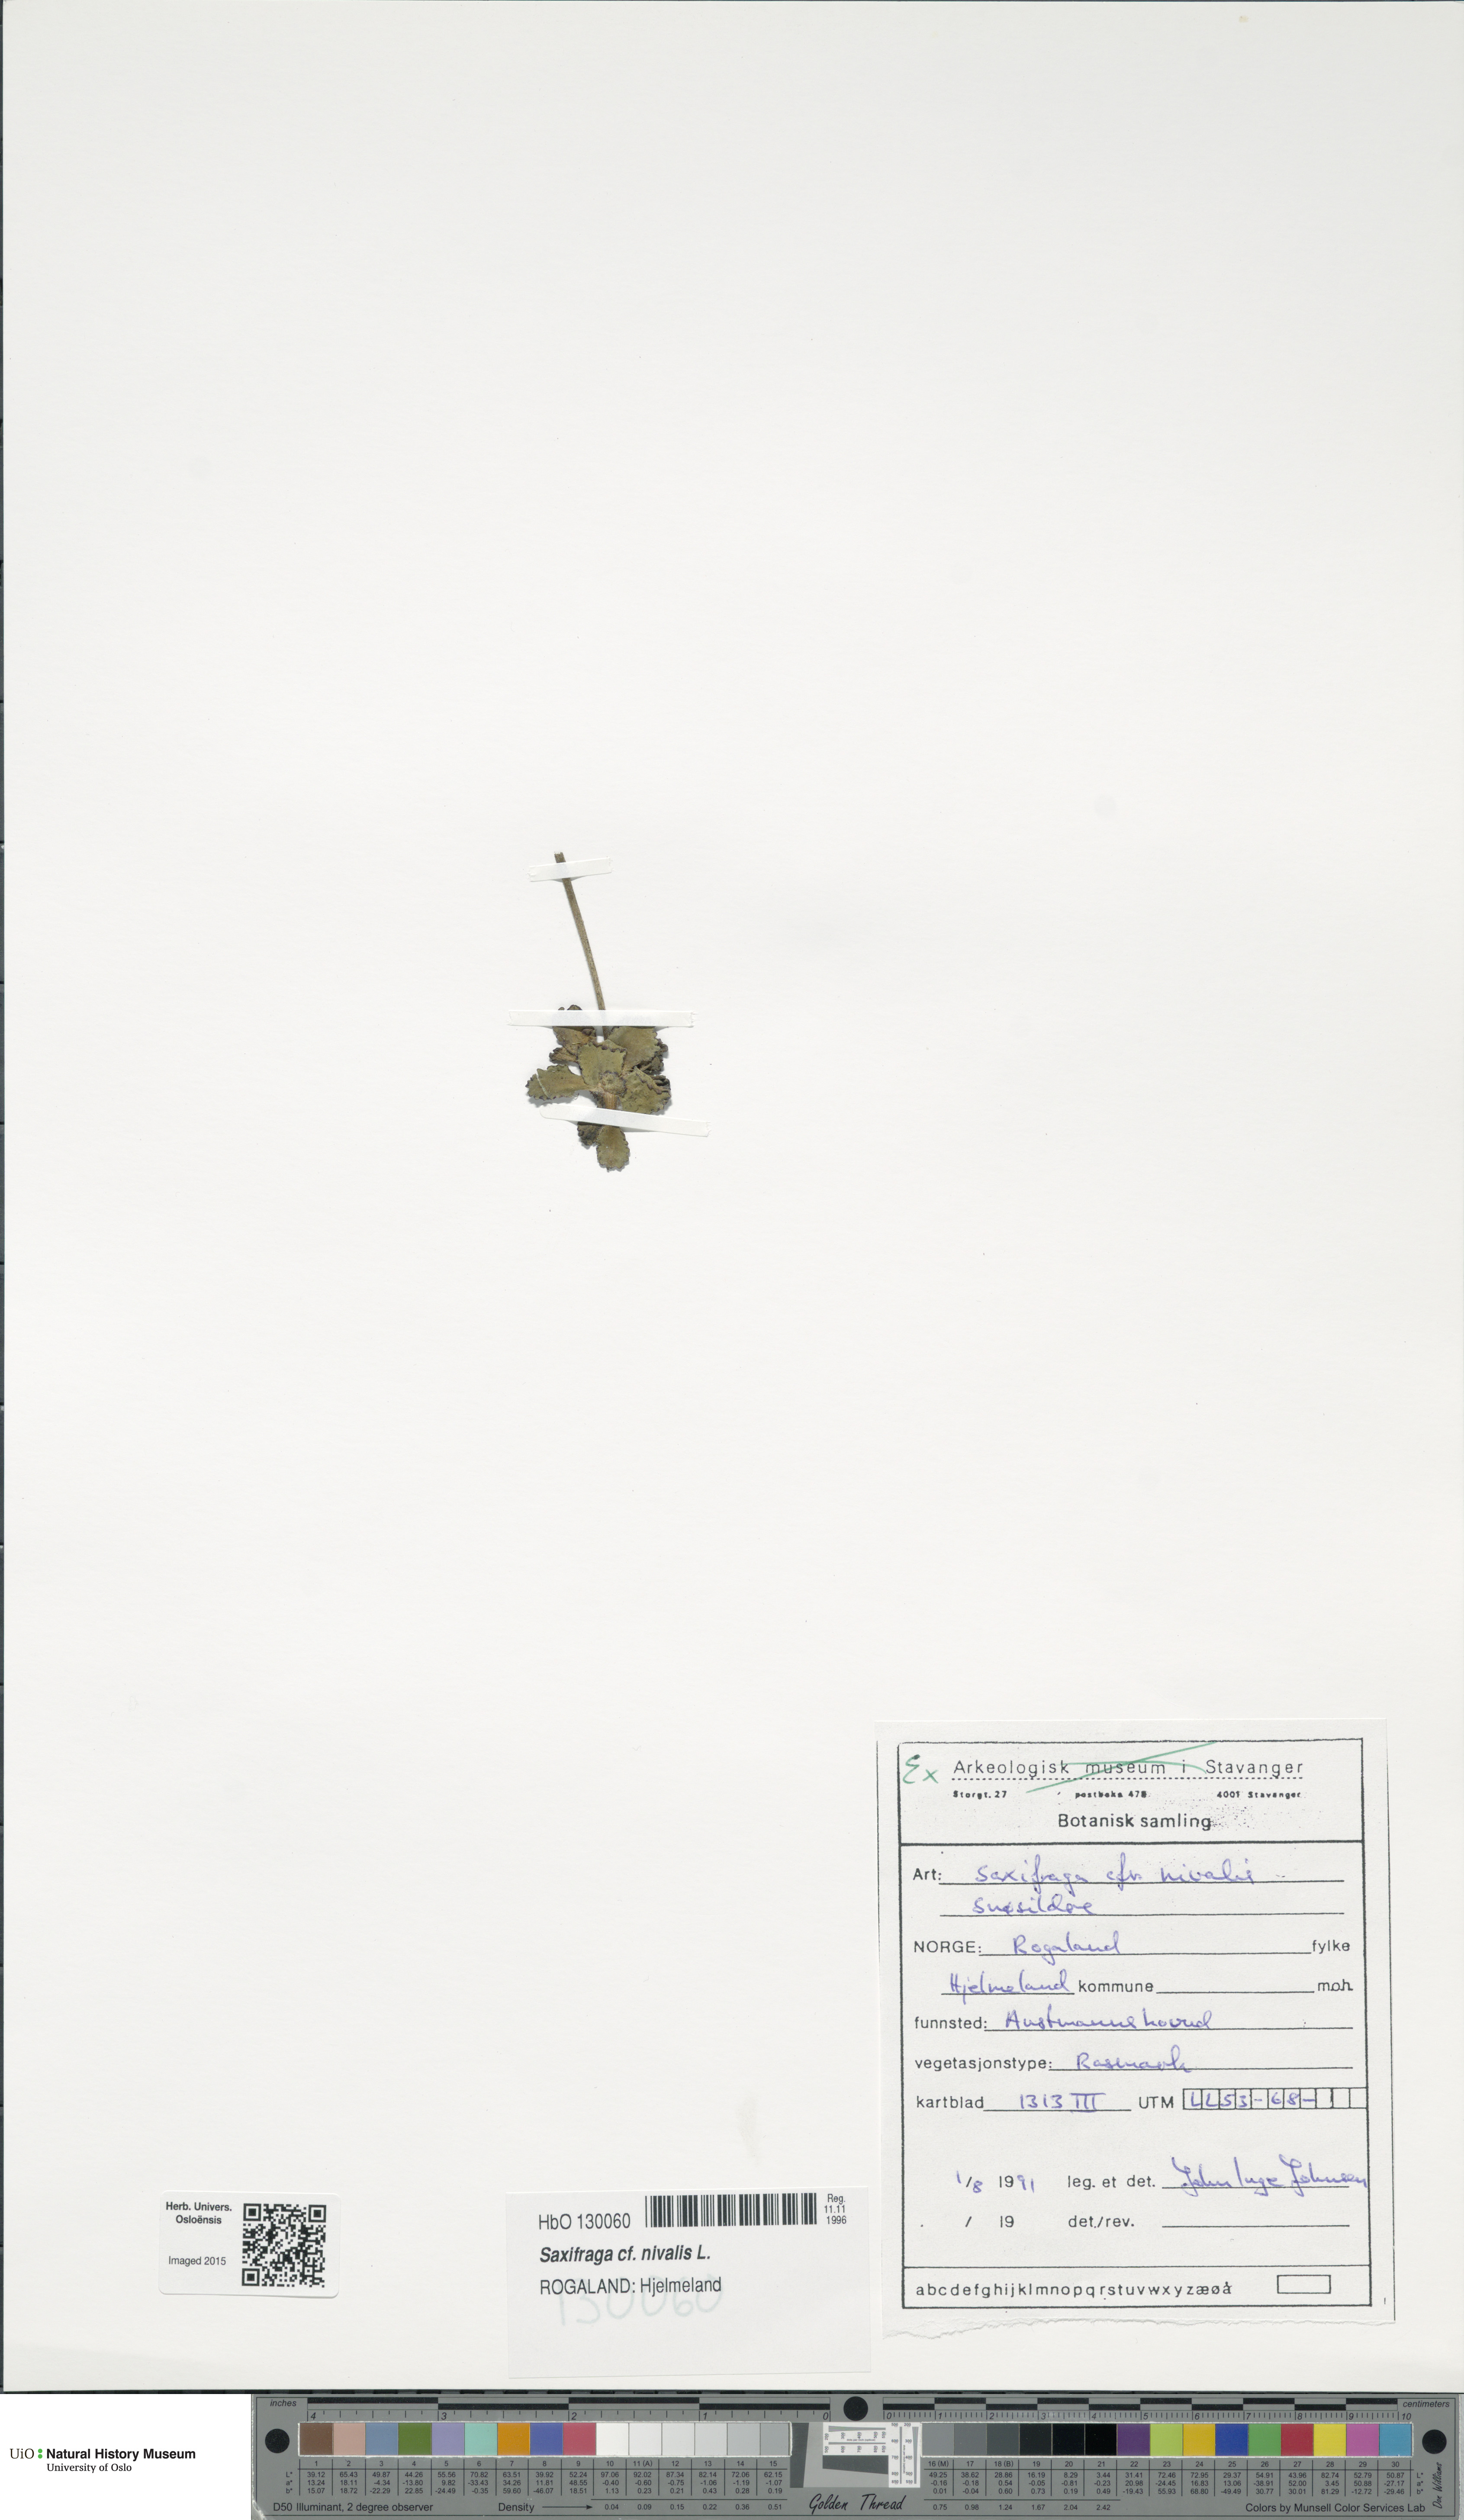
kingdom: Plantae
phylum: Tracheophyta
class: Magnoliopsida
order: Saxifragales
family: Saxifragaceae
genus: Micranthes
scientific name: Micranthes nivalis
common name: Alpine saxifrage
